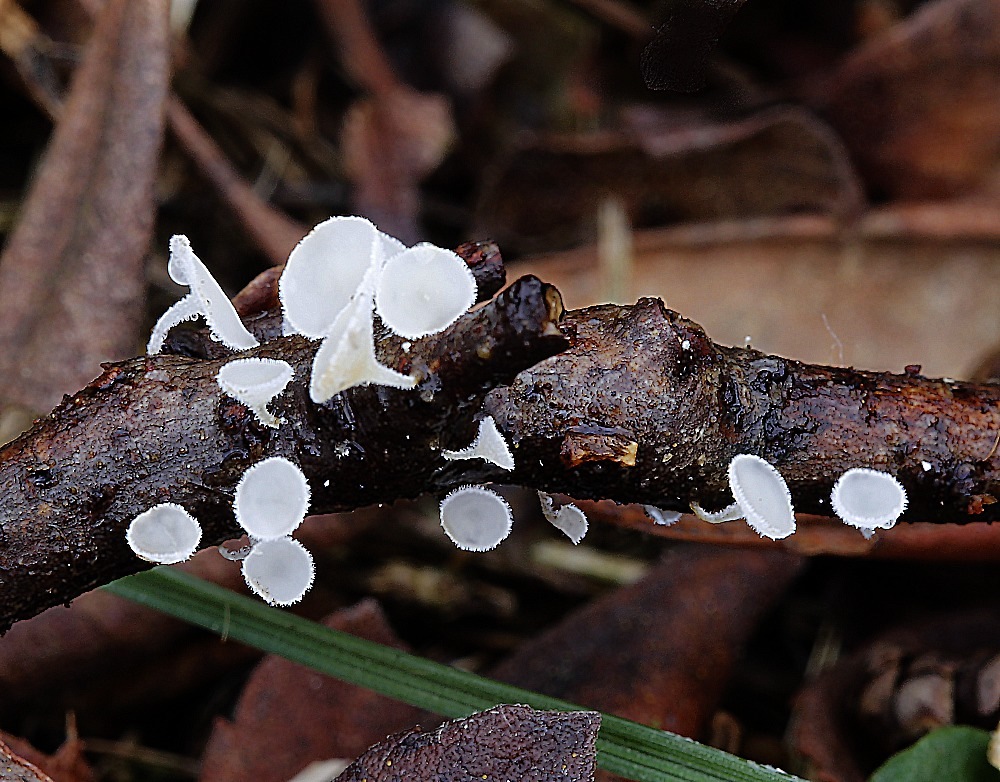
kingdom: Fungi
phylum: Ascomycota
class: Leotiomycetes
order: Helotiales
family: Lachnaceae
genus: Lachnum
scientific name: Lachnum
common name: frynseskive
